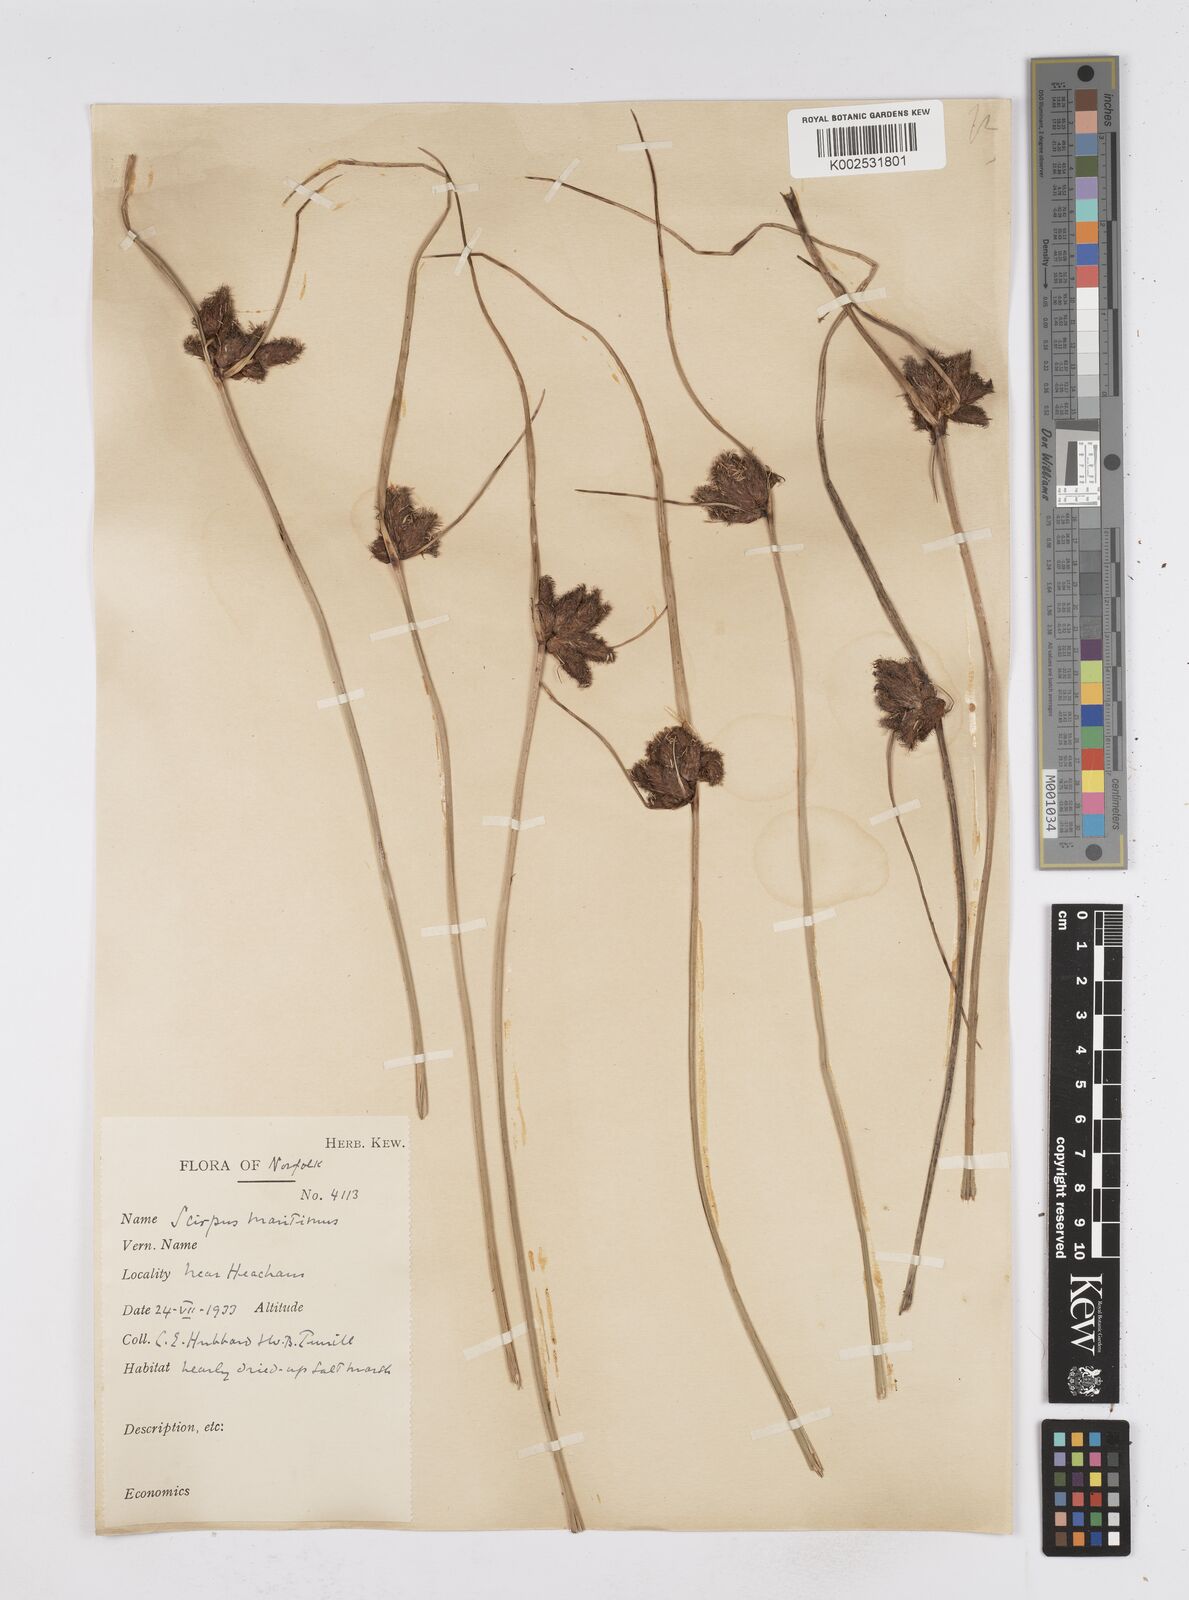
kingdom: Plantae
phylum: Tracheophyta
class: Liliopsida
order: Poales
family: Cyperaceae
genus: Bolboschoenus
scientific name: Bolboschoenus maritimus
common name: Sea club-rush
